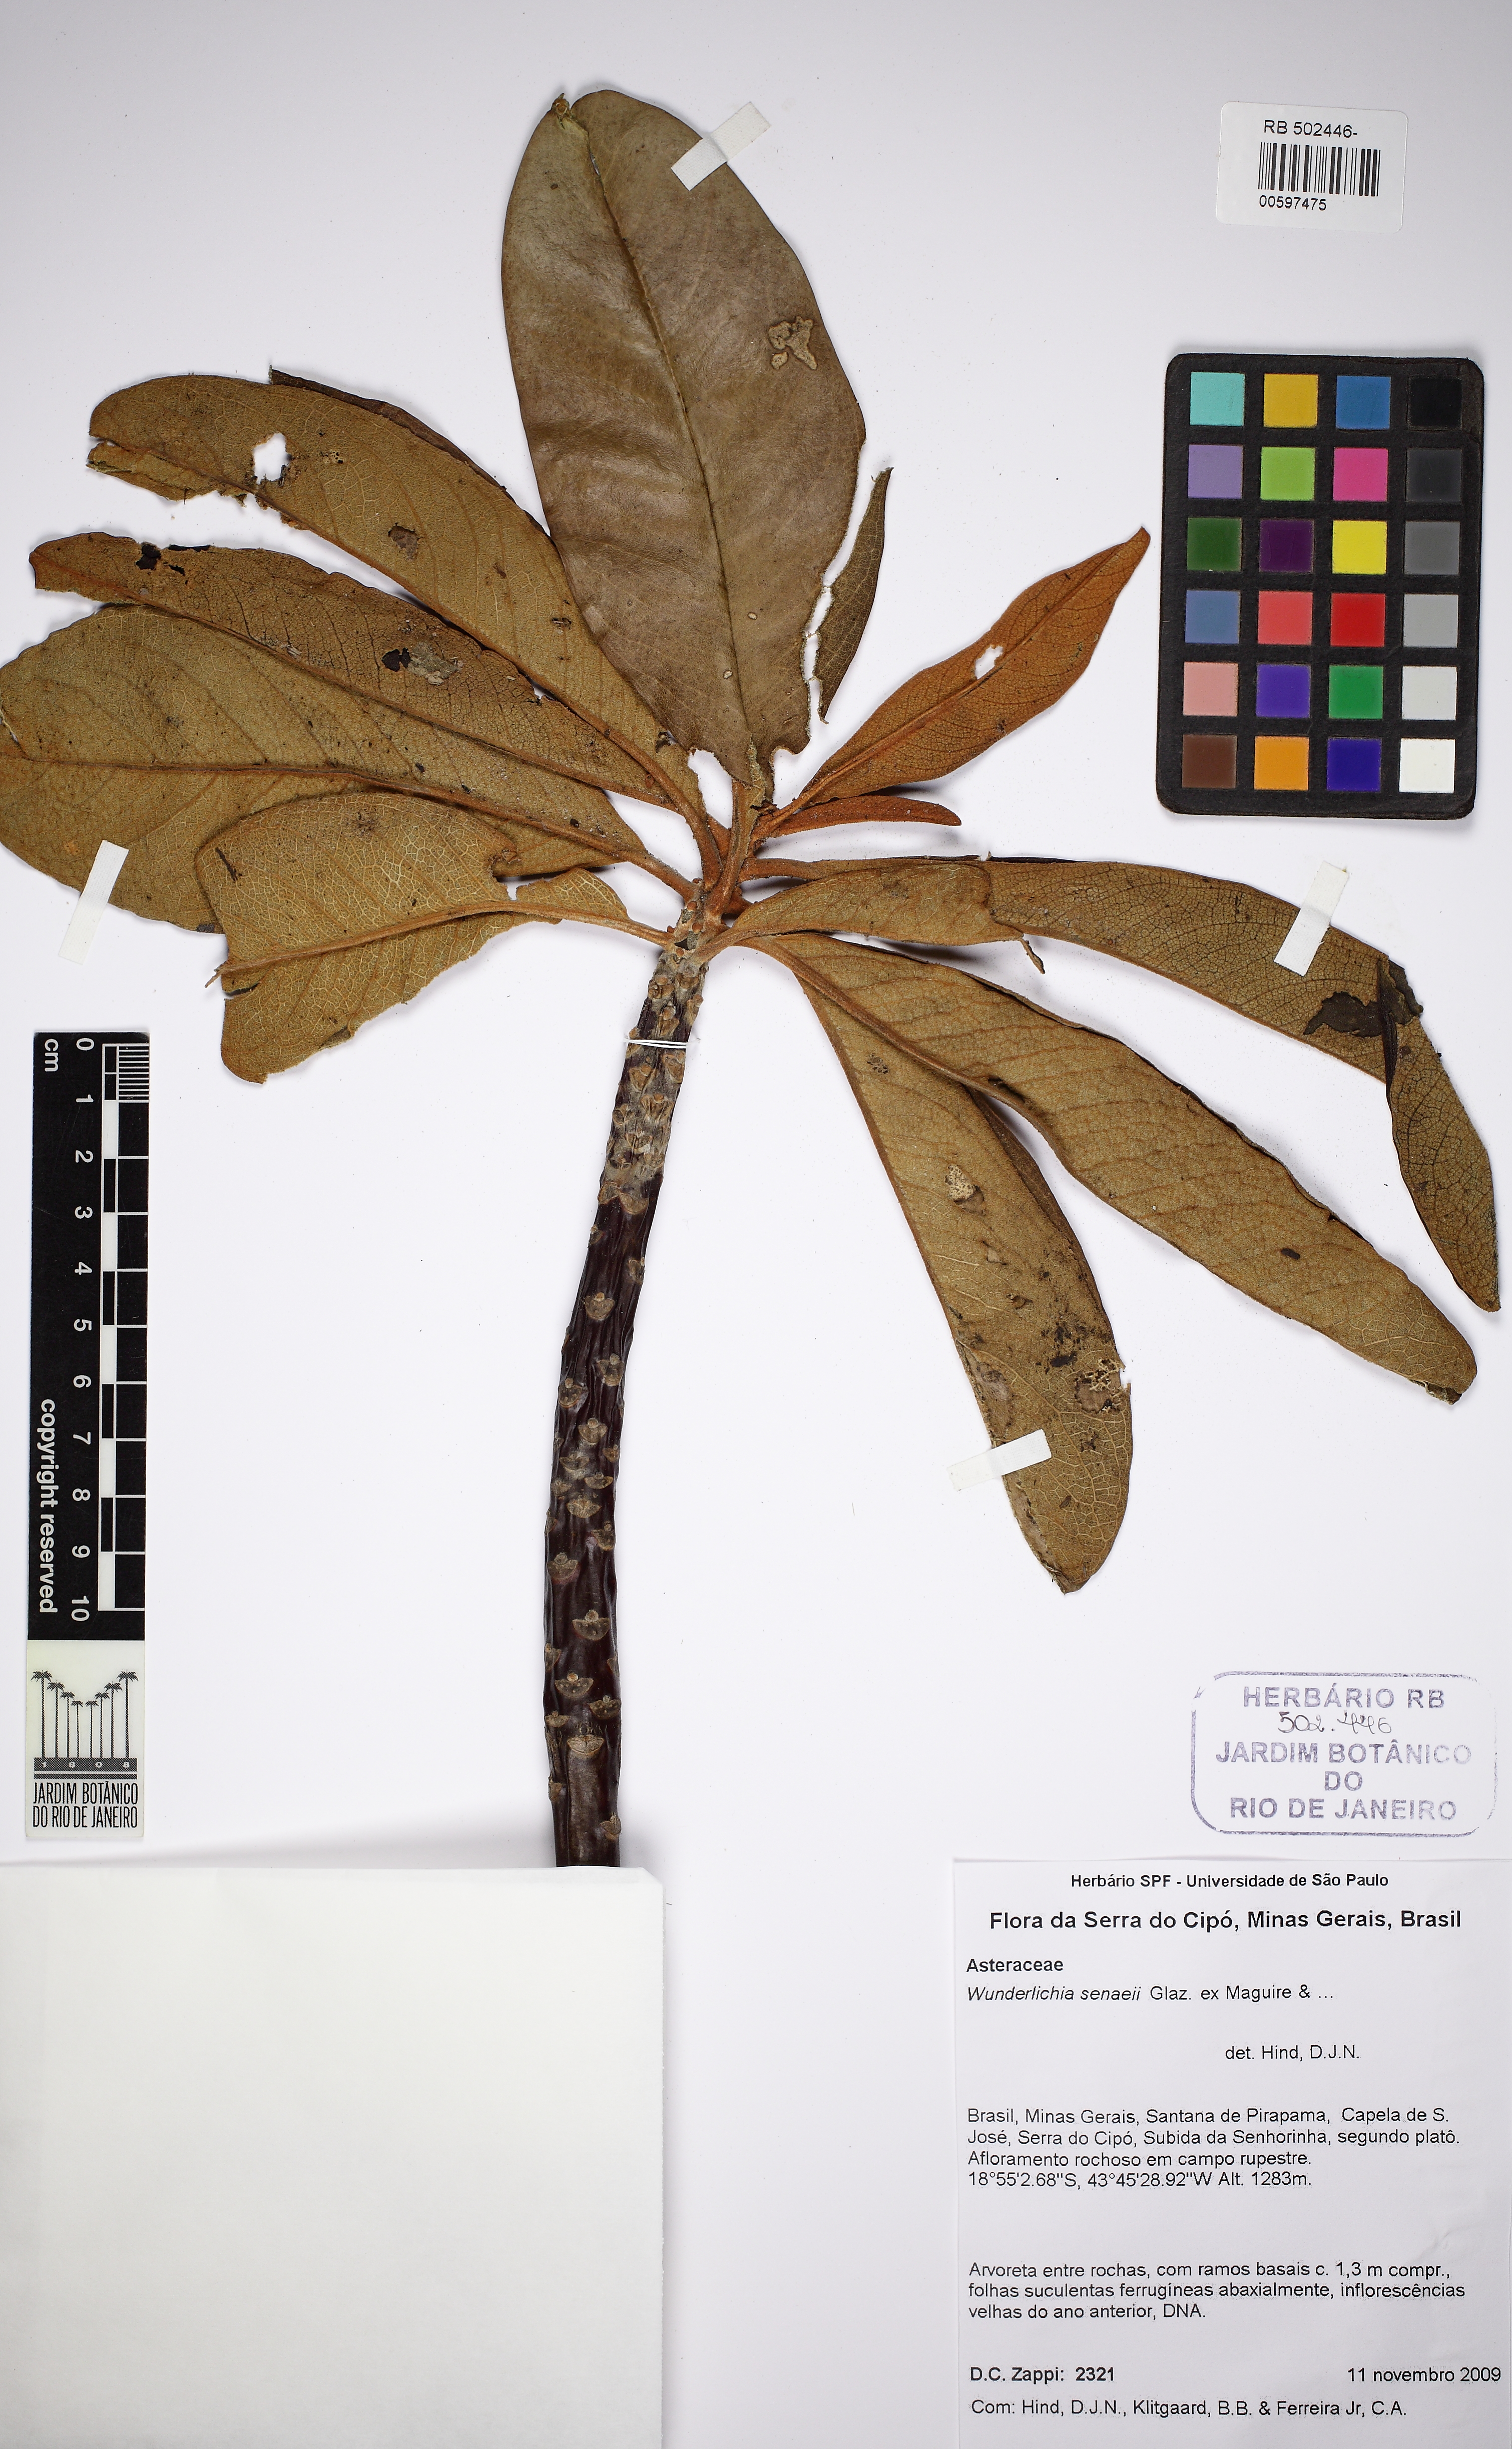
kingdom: Plantae
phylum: Tracheophyta
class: Magnoliopsida
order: Asterales
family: Asteraceae
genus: Wunderlichia
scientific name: Wunderlichia senaeii
